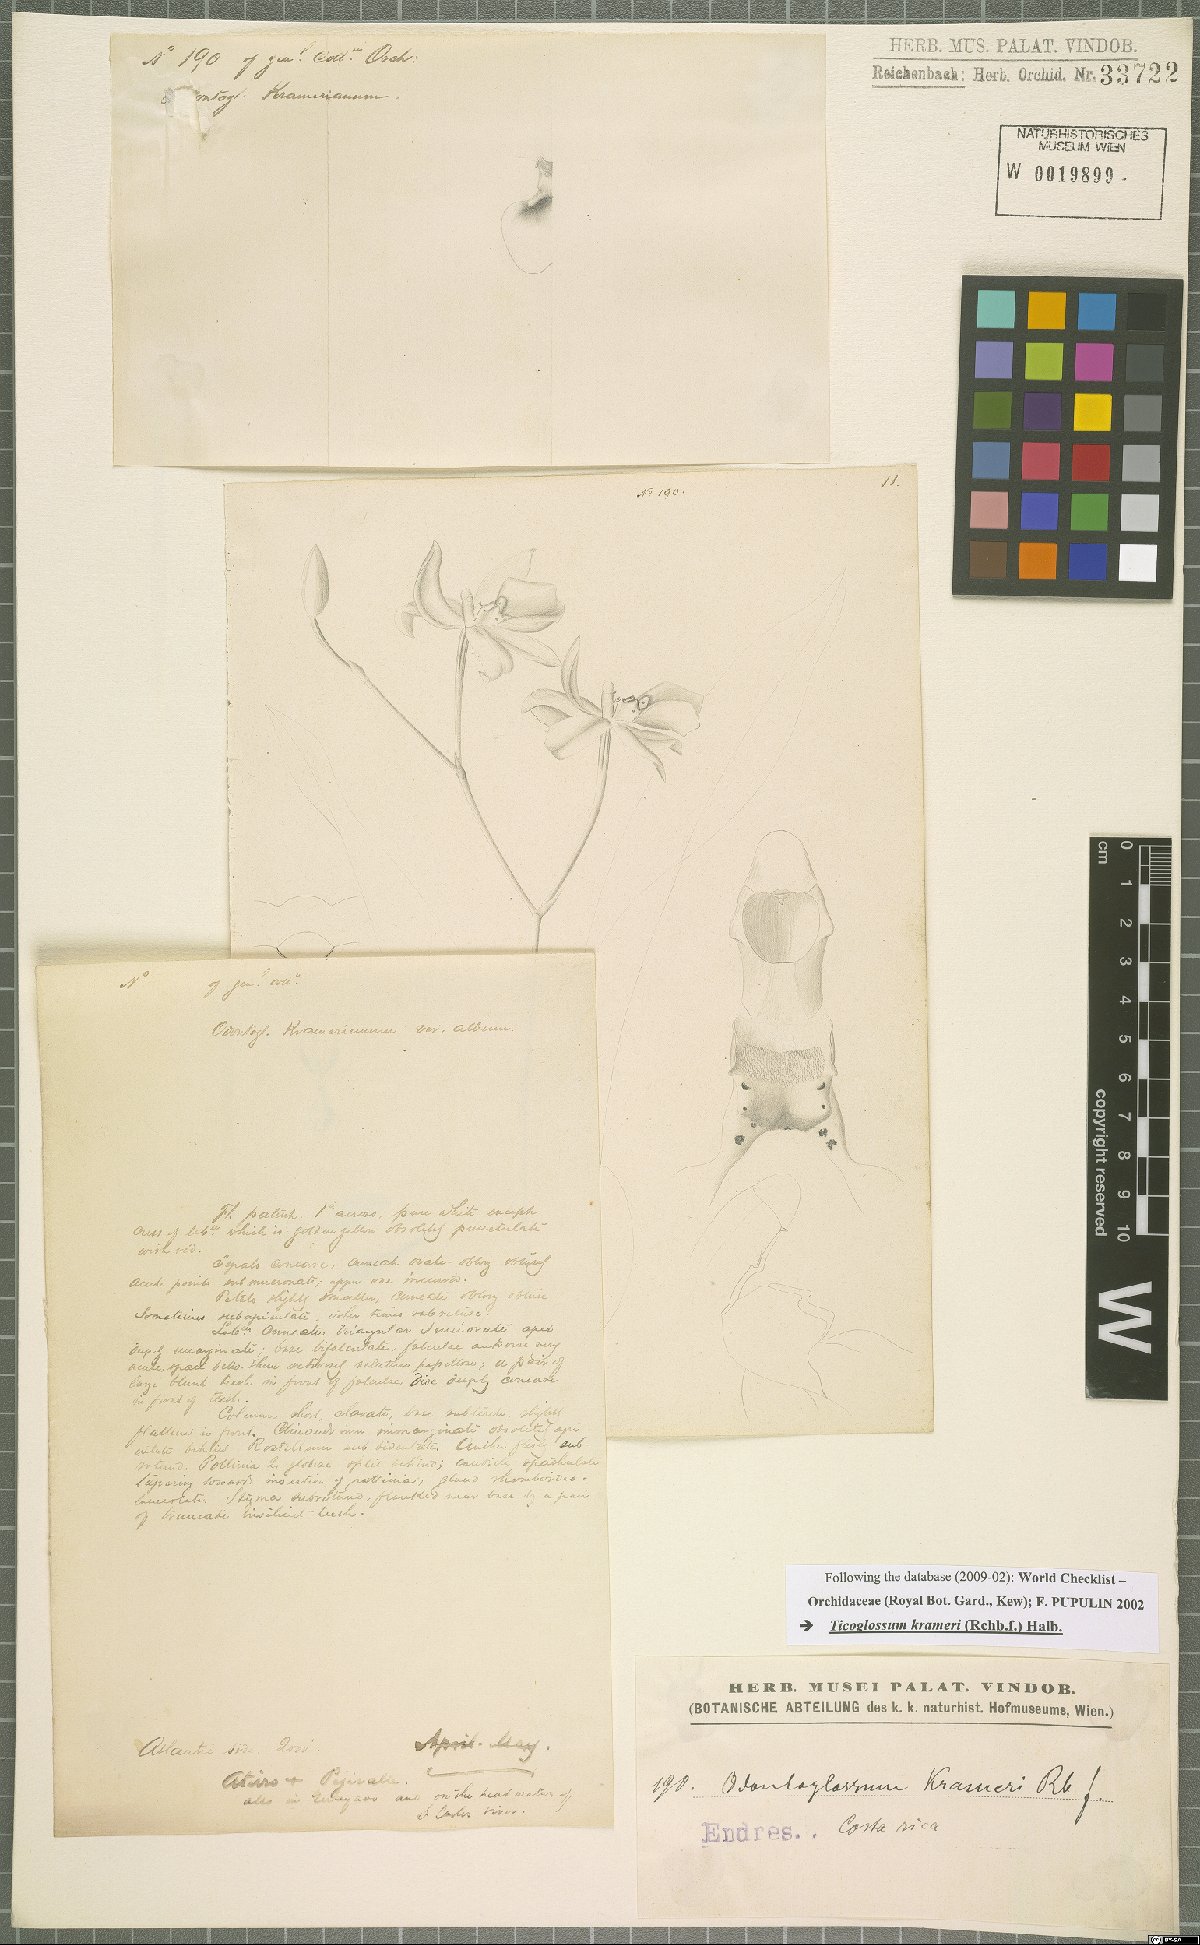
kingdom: Plantae
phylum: Tracheophyta
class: Liliopsida
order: Asparagales
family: Orchidaceae
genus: Rossioglossum
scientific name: Rossioglossum krameri
